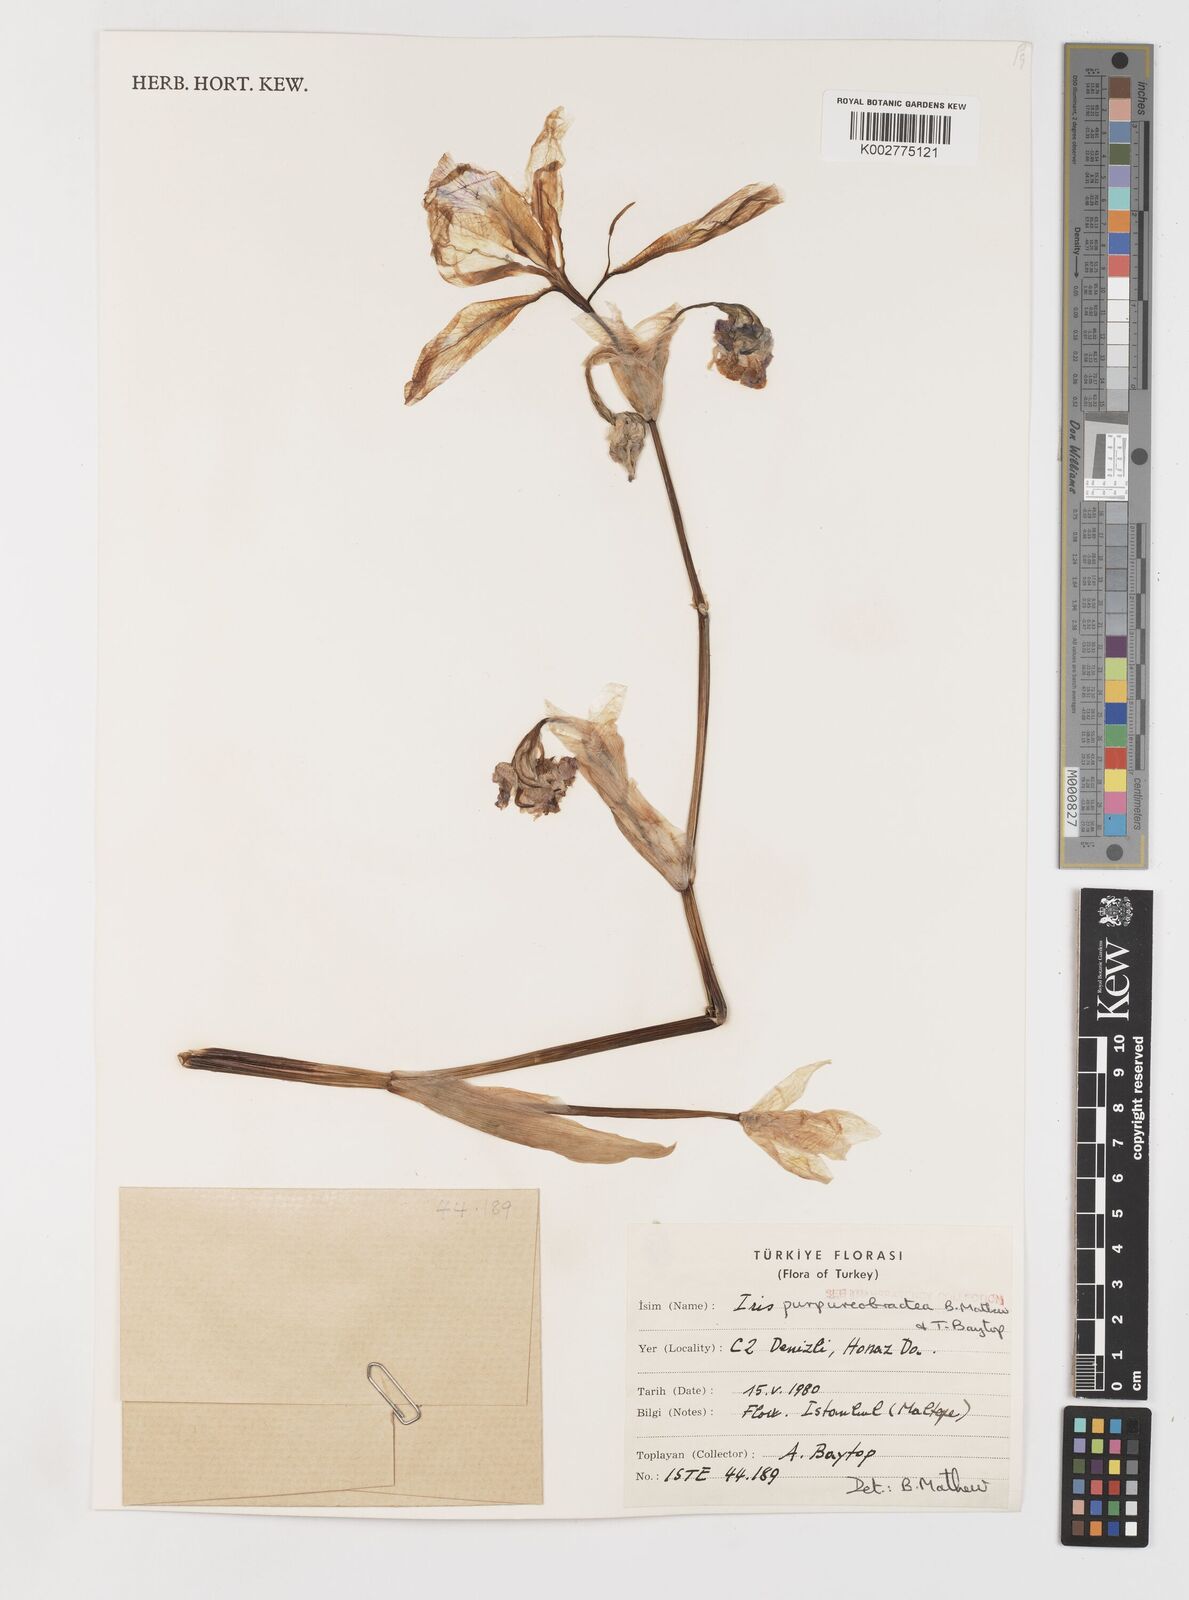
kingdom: Plantae
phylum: Tracheophyta
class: Liliopsida
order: Asparagales
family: Iridaceae
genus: Iris
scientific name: Iris purpureobractea
